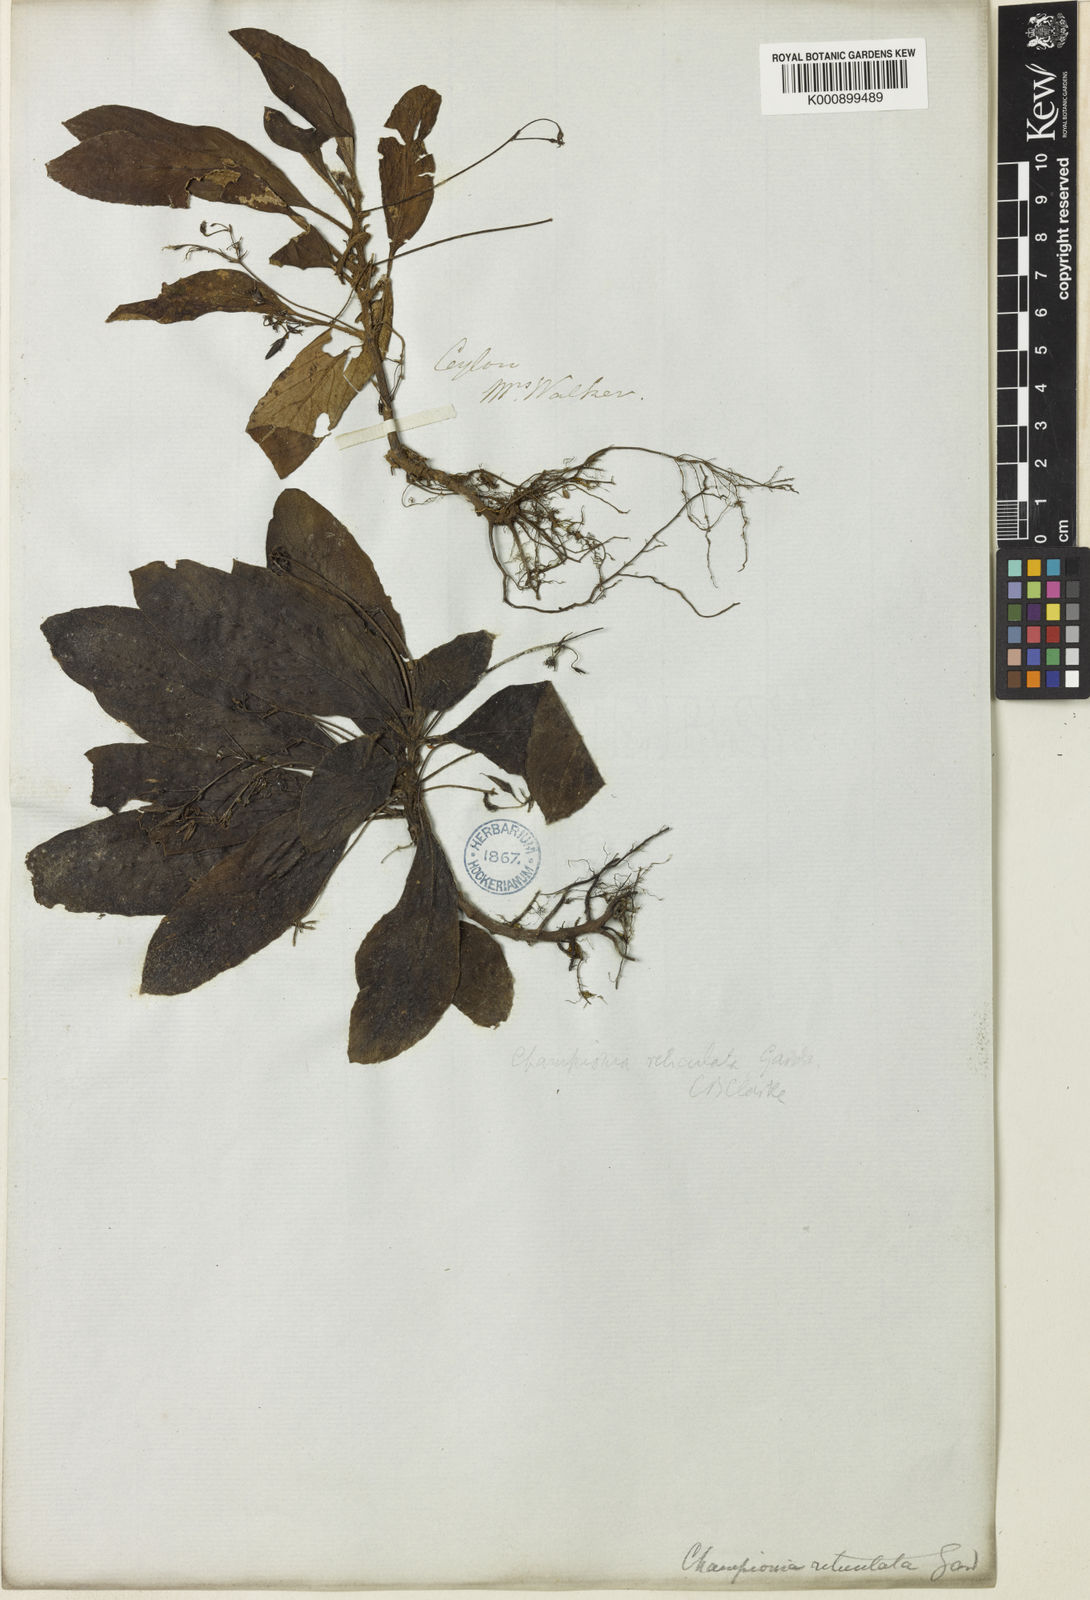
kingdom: Plantae
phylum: Tracheophyta
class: Magnoliopsida
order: Lamiales
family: Gesneriaceae
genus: Championia
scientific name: Championia reticulata
